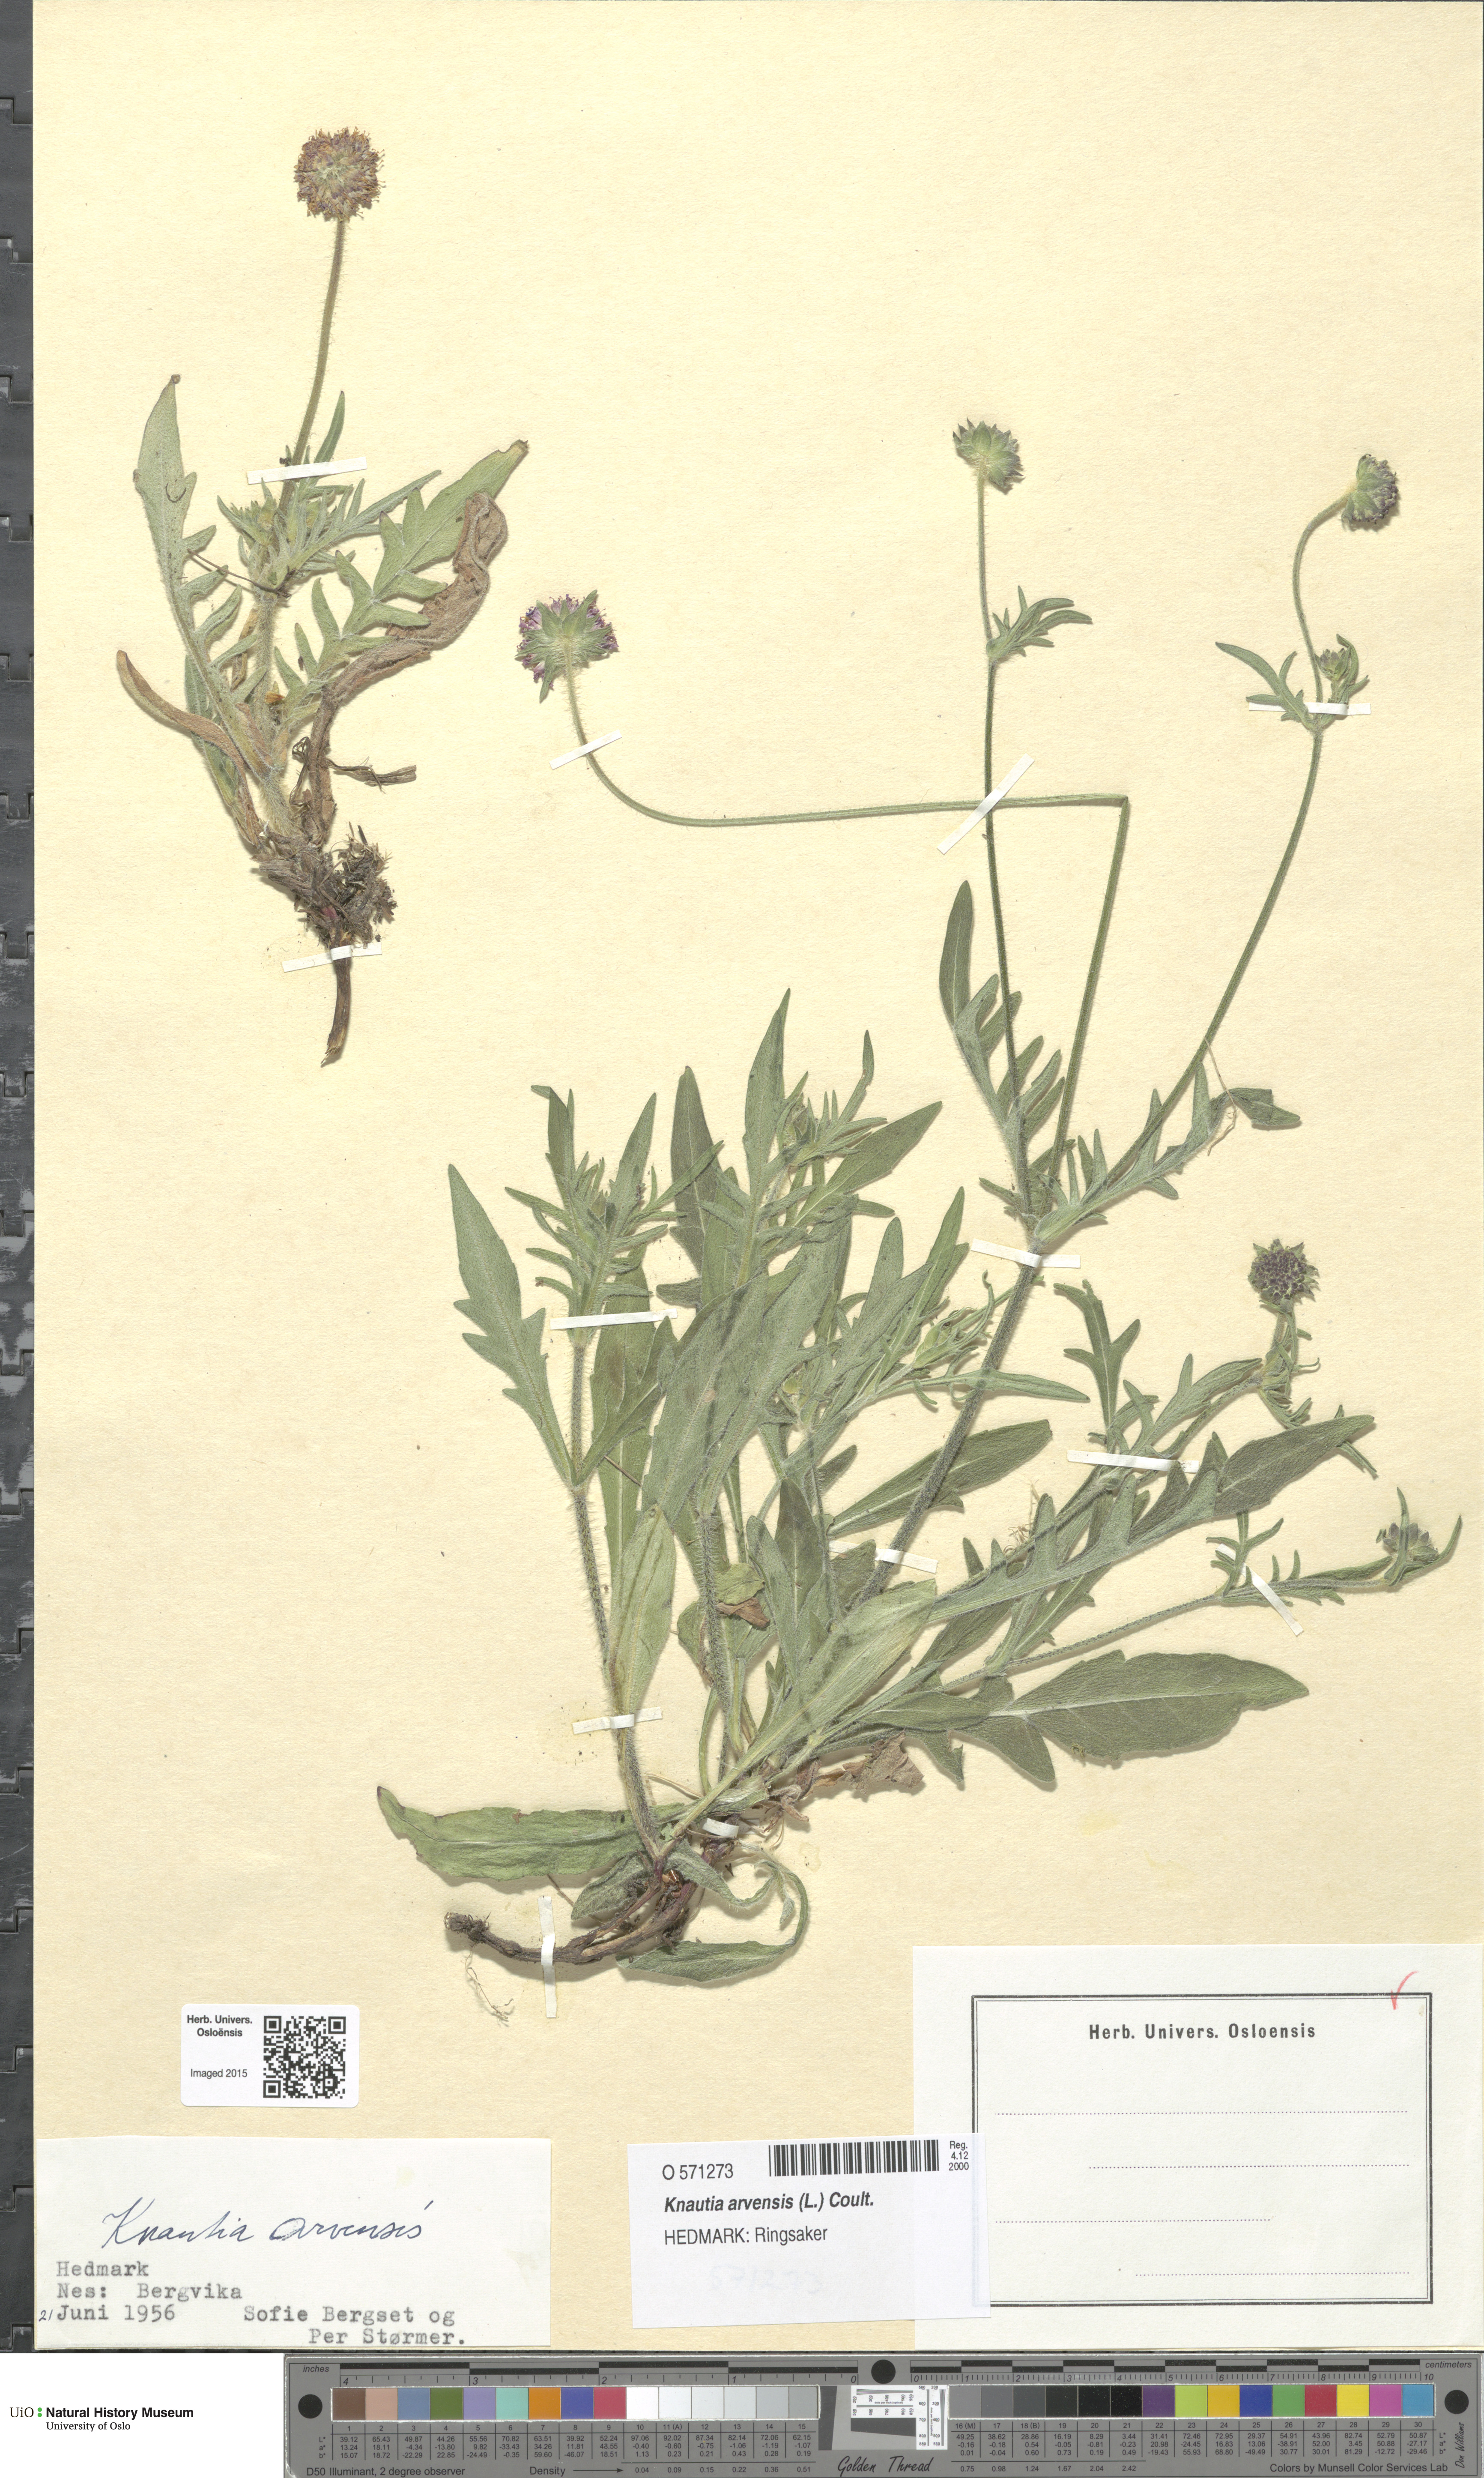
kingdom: Plantae
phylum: Tracheophyta
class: Magnoliopsida
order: Dipsacales
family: Caprifoliaceae
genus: Knautia
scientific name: Knautia arvensis
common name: Field scabiosa
